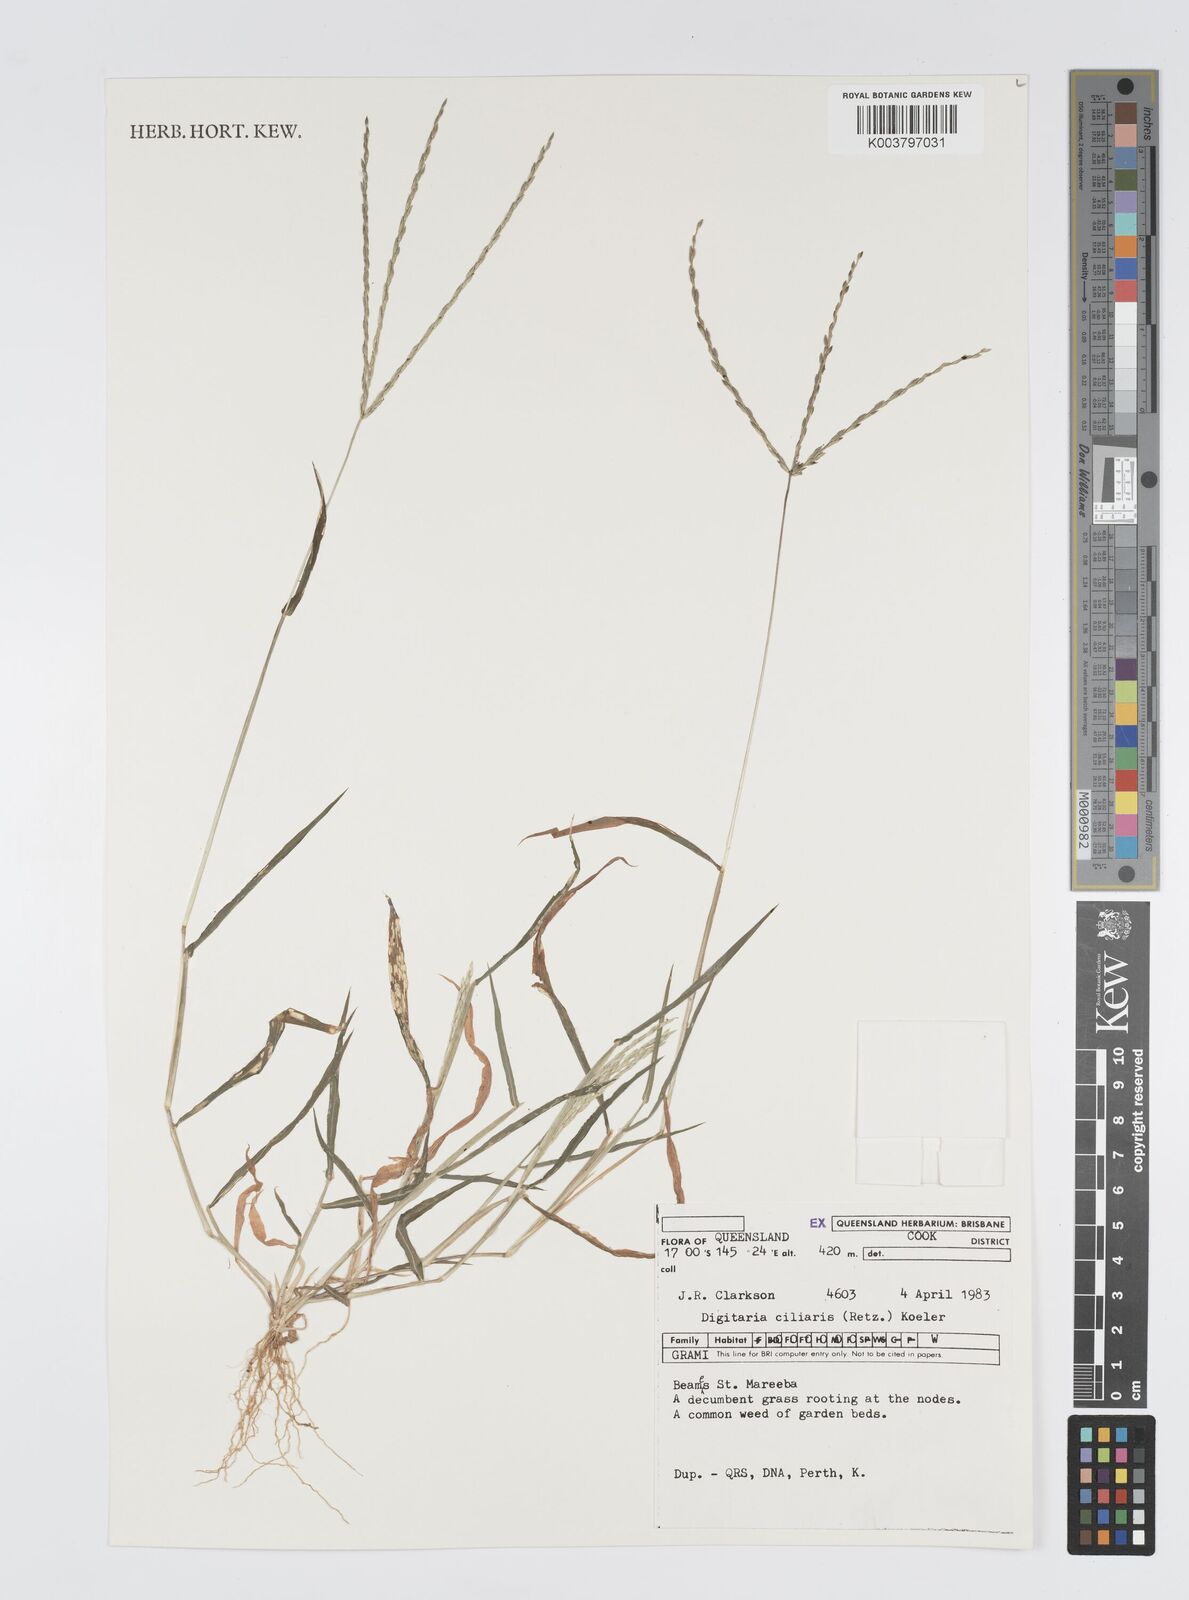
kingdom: Plantae
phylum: Tracheophyta
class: Liliopsida
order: Poales
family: Poaceae
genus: Digitaria
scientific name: Digitaria ciliaris
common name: Tropical finger-grass
